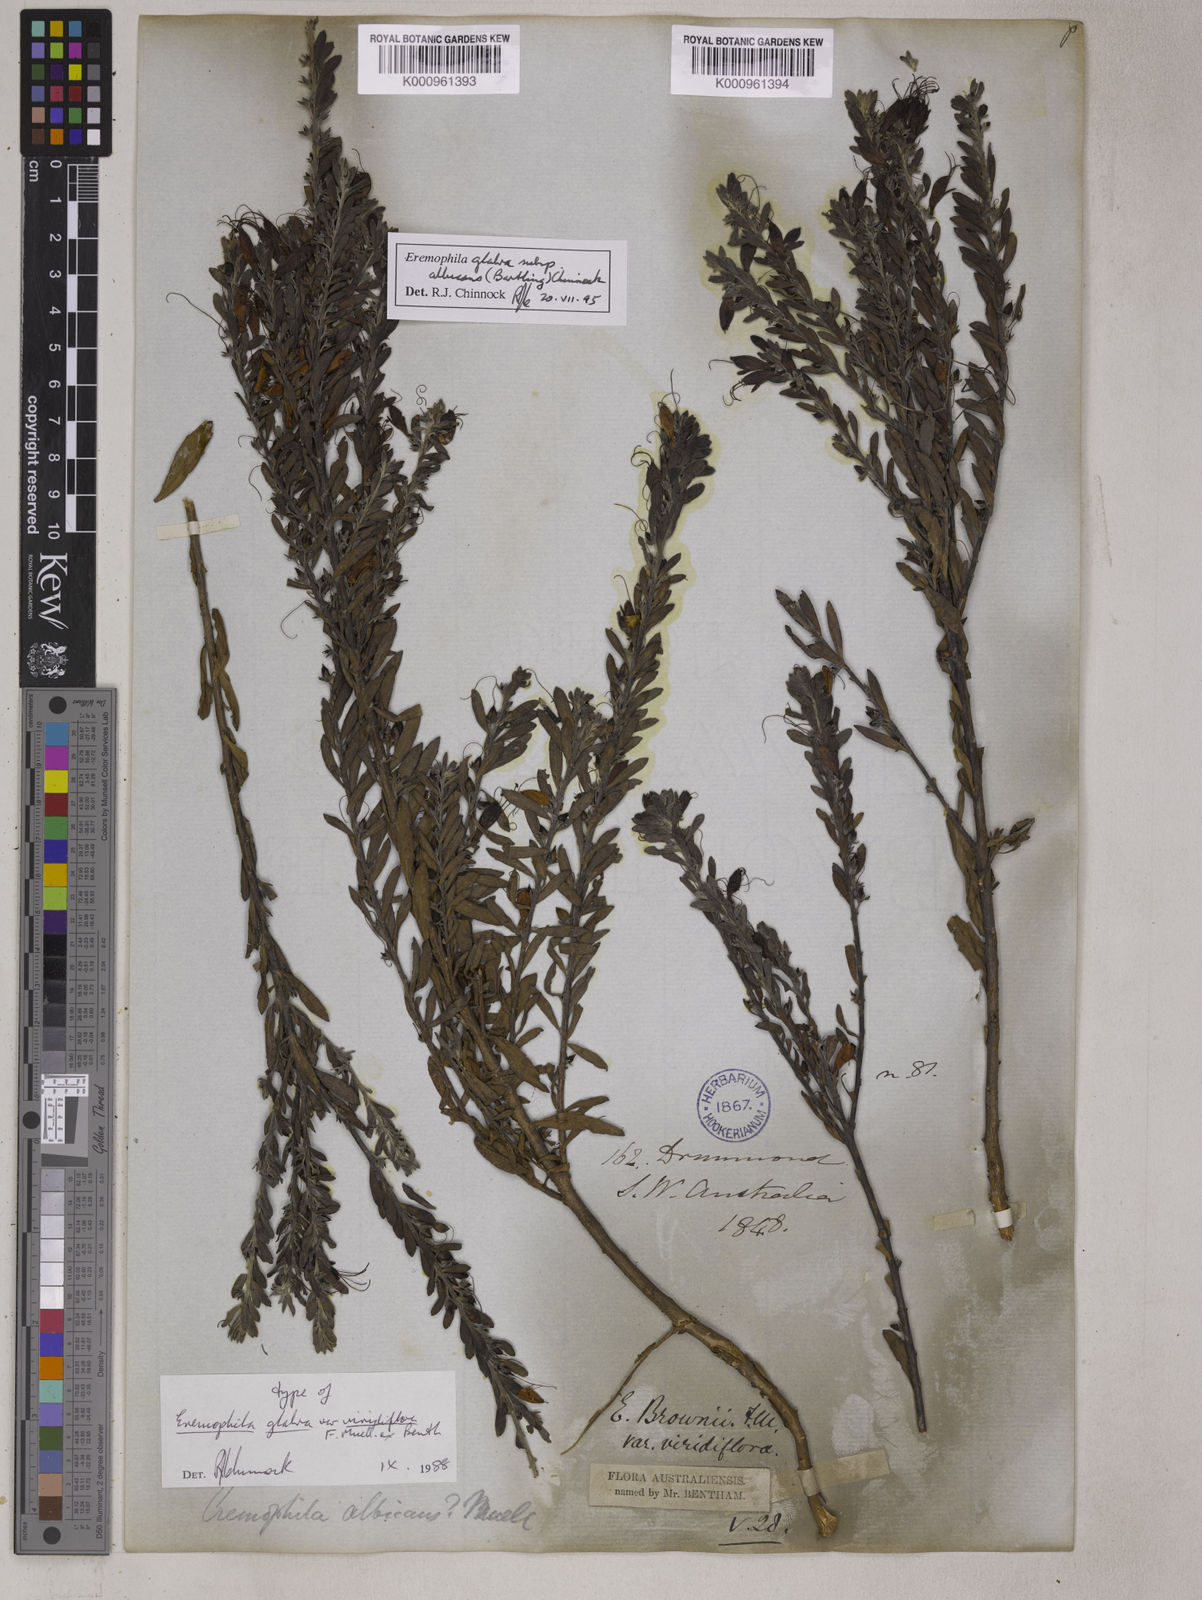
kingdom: Plantae
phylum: Tracheophyta
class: Magnoliopsida
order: Lamiales
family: Scrophulariaceae
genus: Eremophila
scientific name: Eremophila glabra
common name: Black-fuchsia
